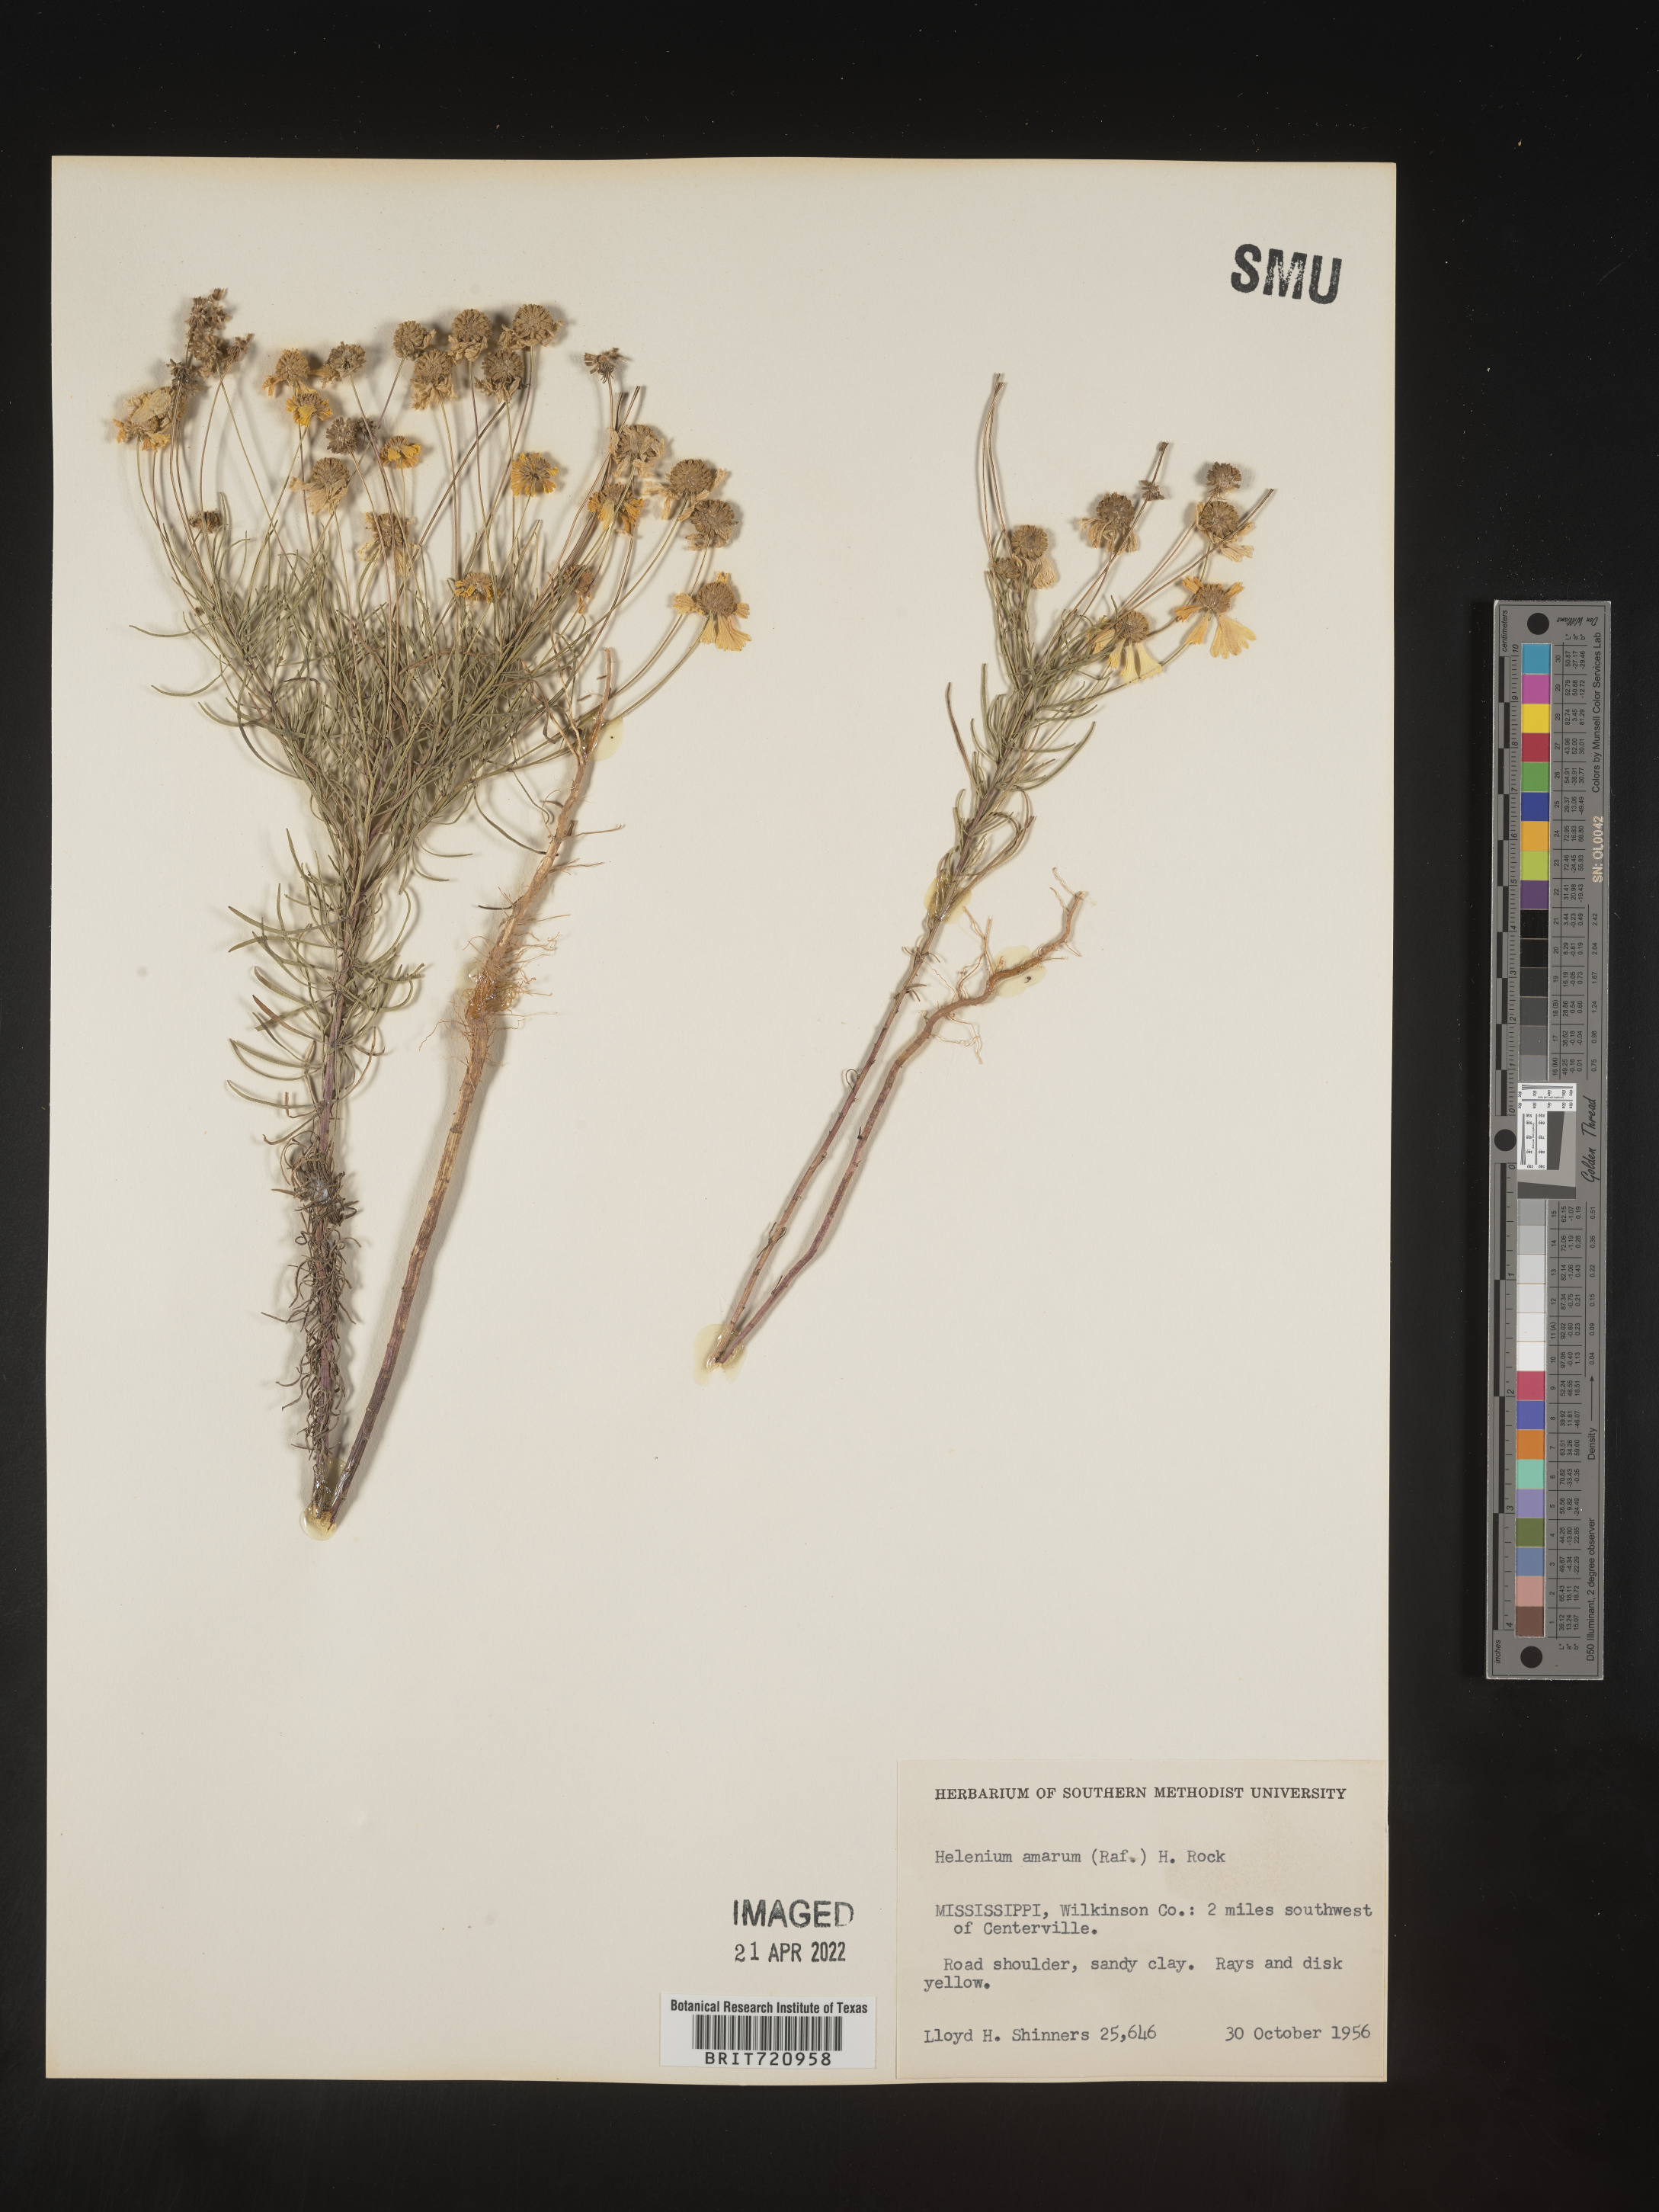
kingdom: Plantae
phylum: Tracheophyta
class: Magnoliopsida
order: Asterales
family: Asteraceae
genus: Helenium
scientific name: Helenium amarum
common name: Bitter sneezeweed
